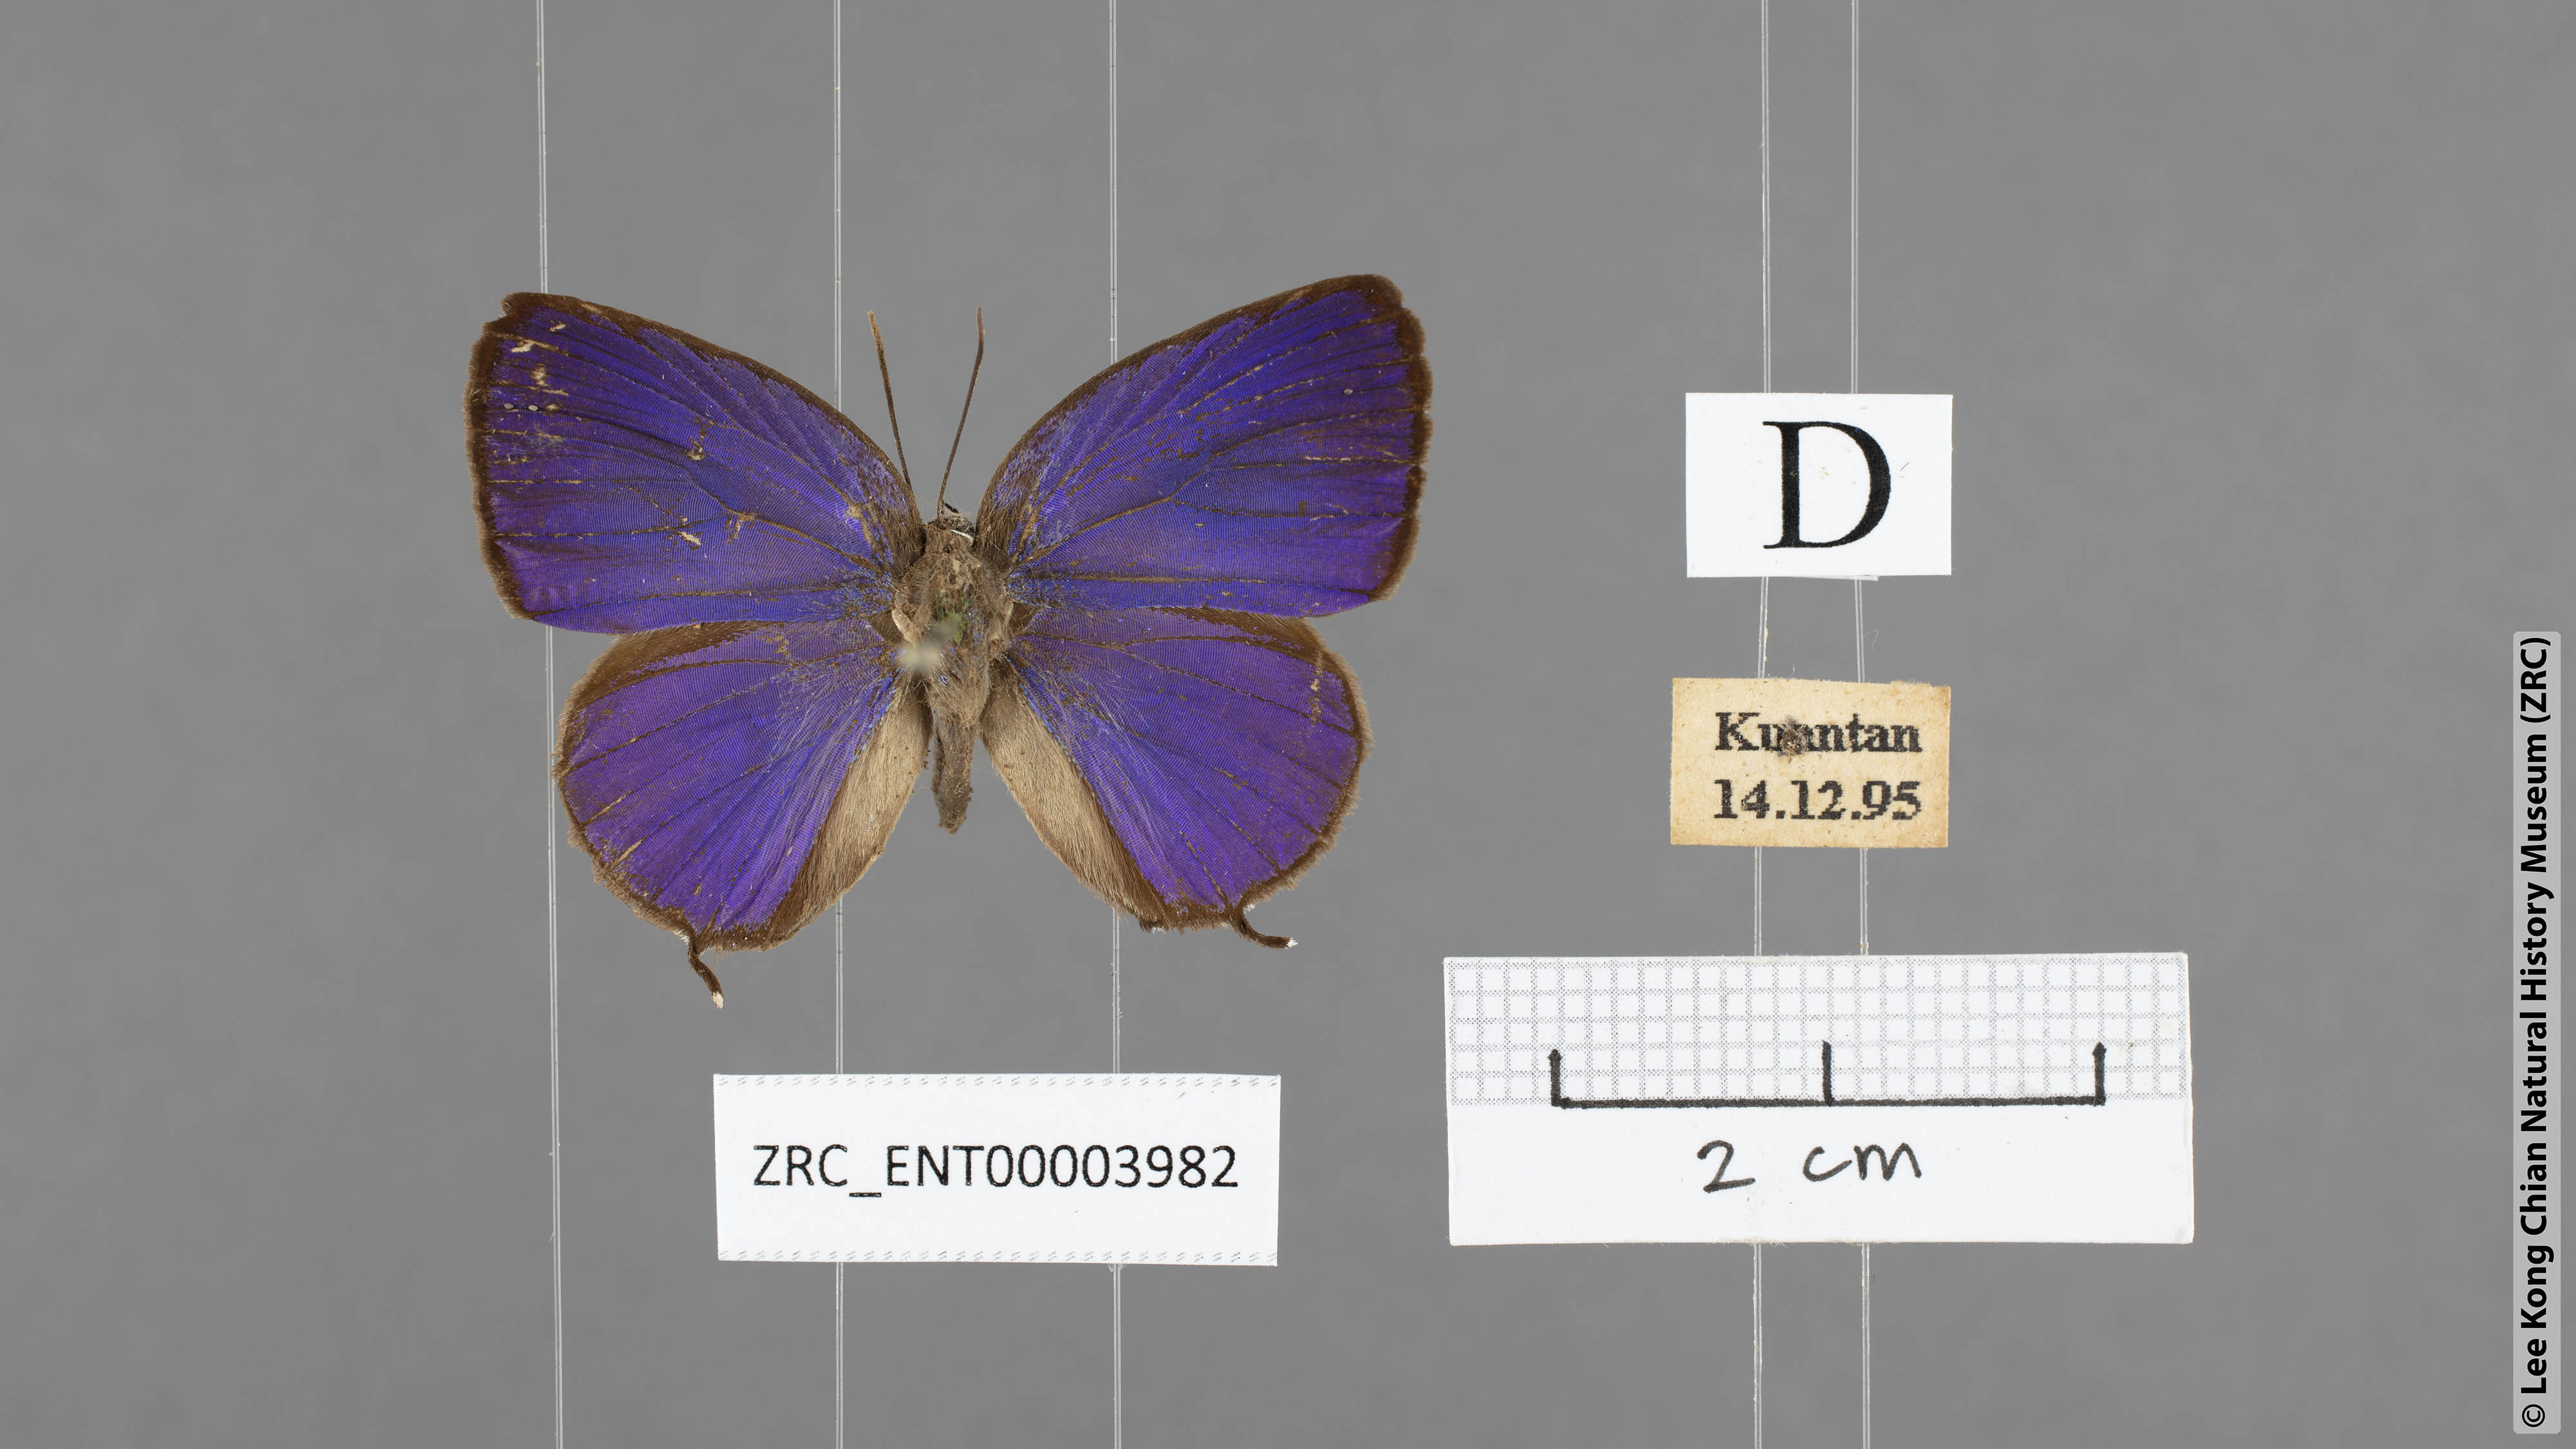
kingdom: Animalia
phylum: Arthropoda
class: Insecta
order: Lepidoptera
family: Lycaenidae
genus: Arhopala
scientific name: Arhopala atosia
